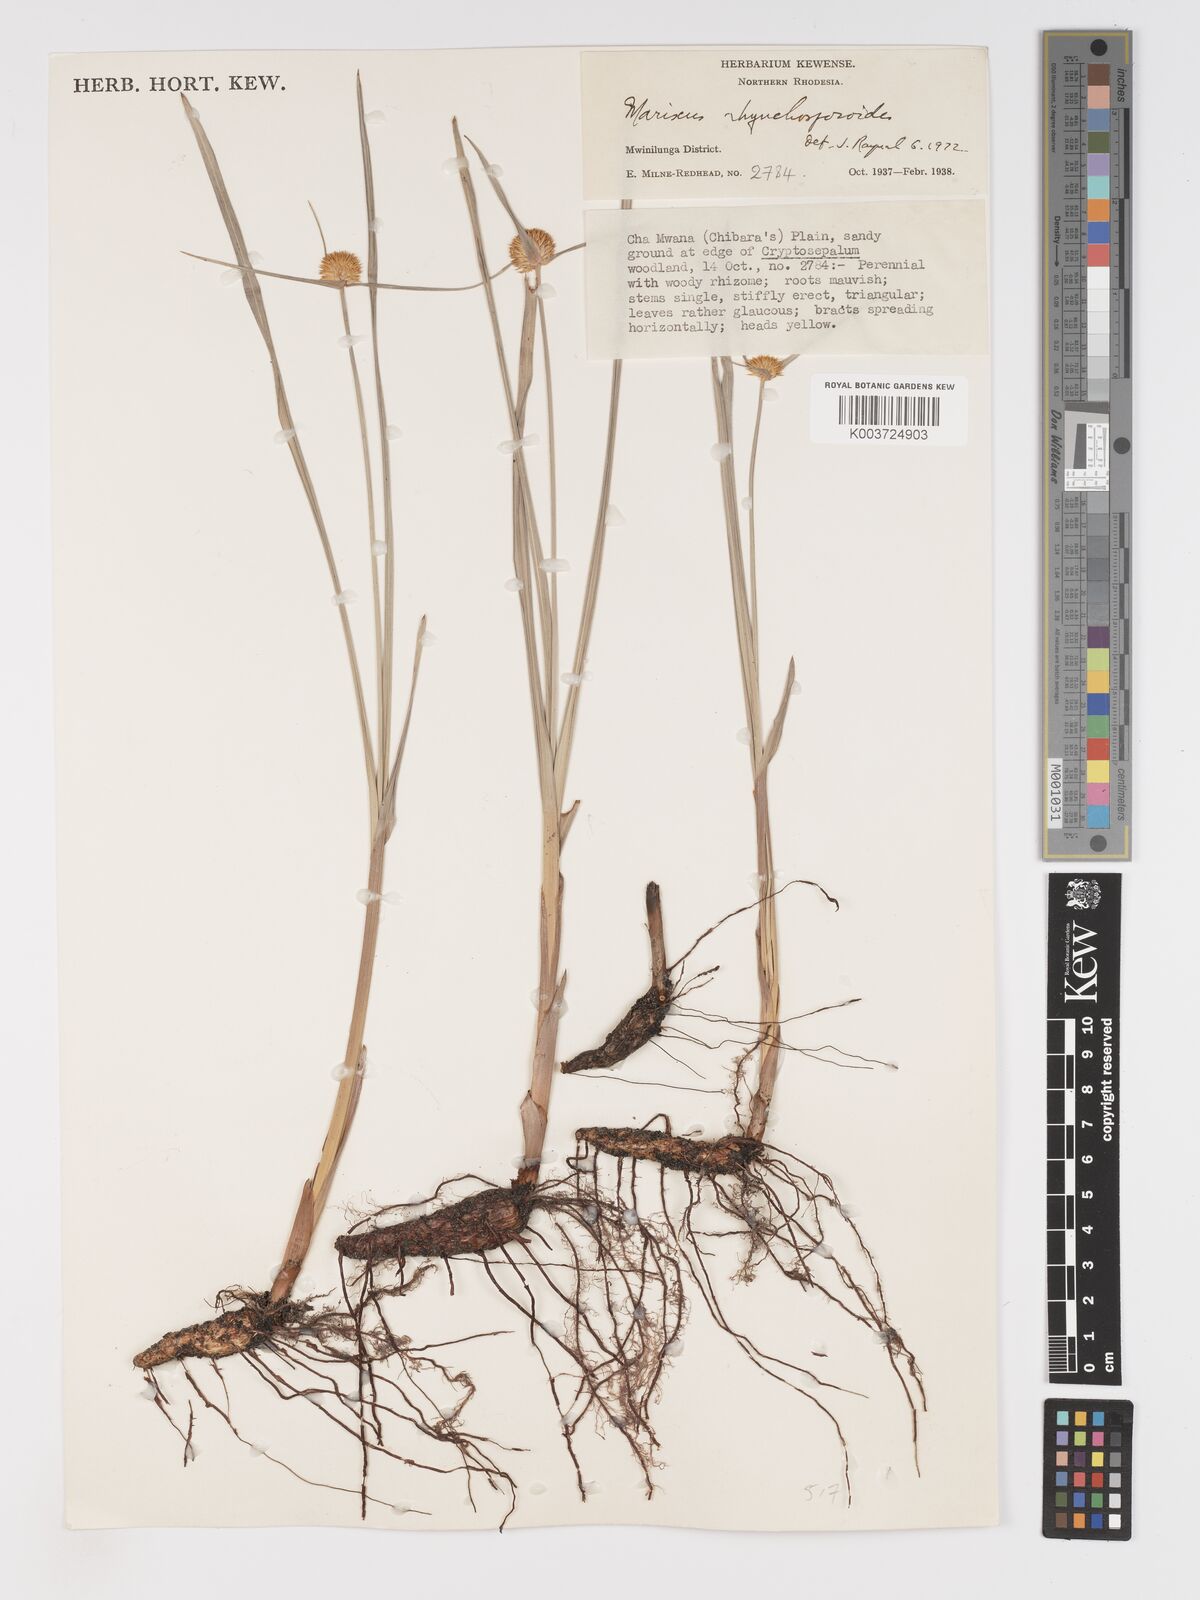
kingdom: Plantae
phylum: Tracheophyta
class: Liliopsida
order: Poales
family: Cyperaceae
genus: Cyperus
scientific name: Cyperus altochrysocephalus
